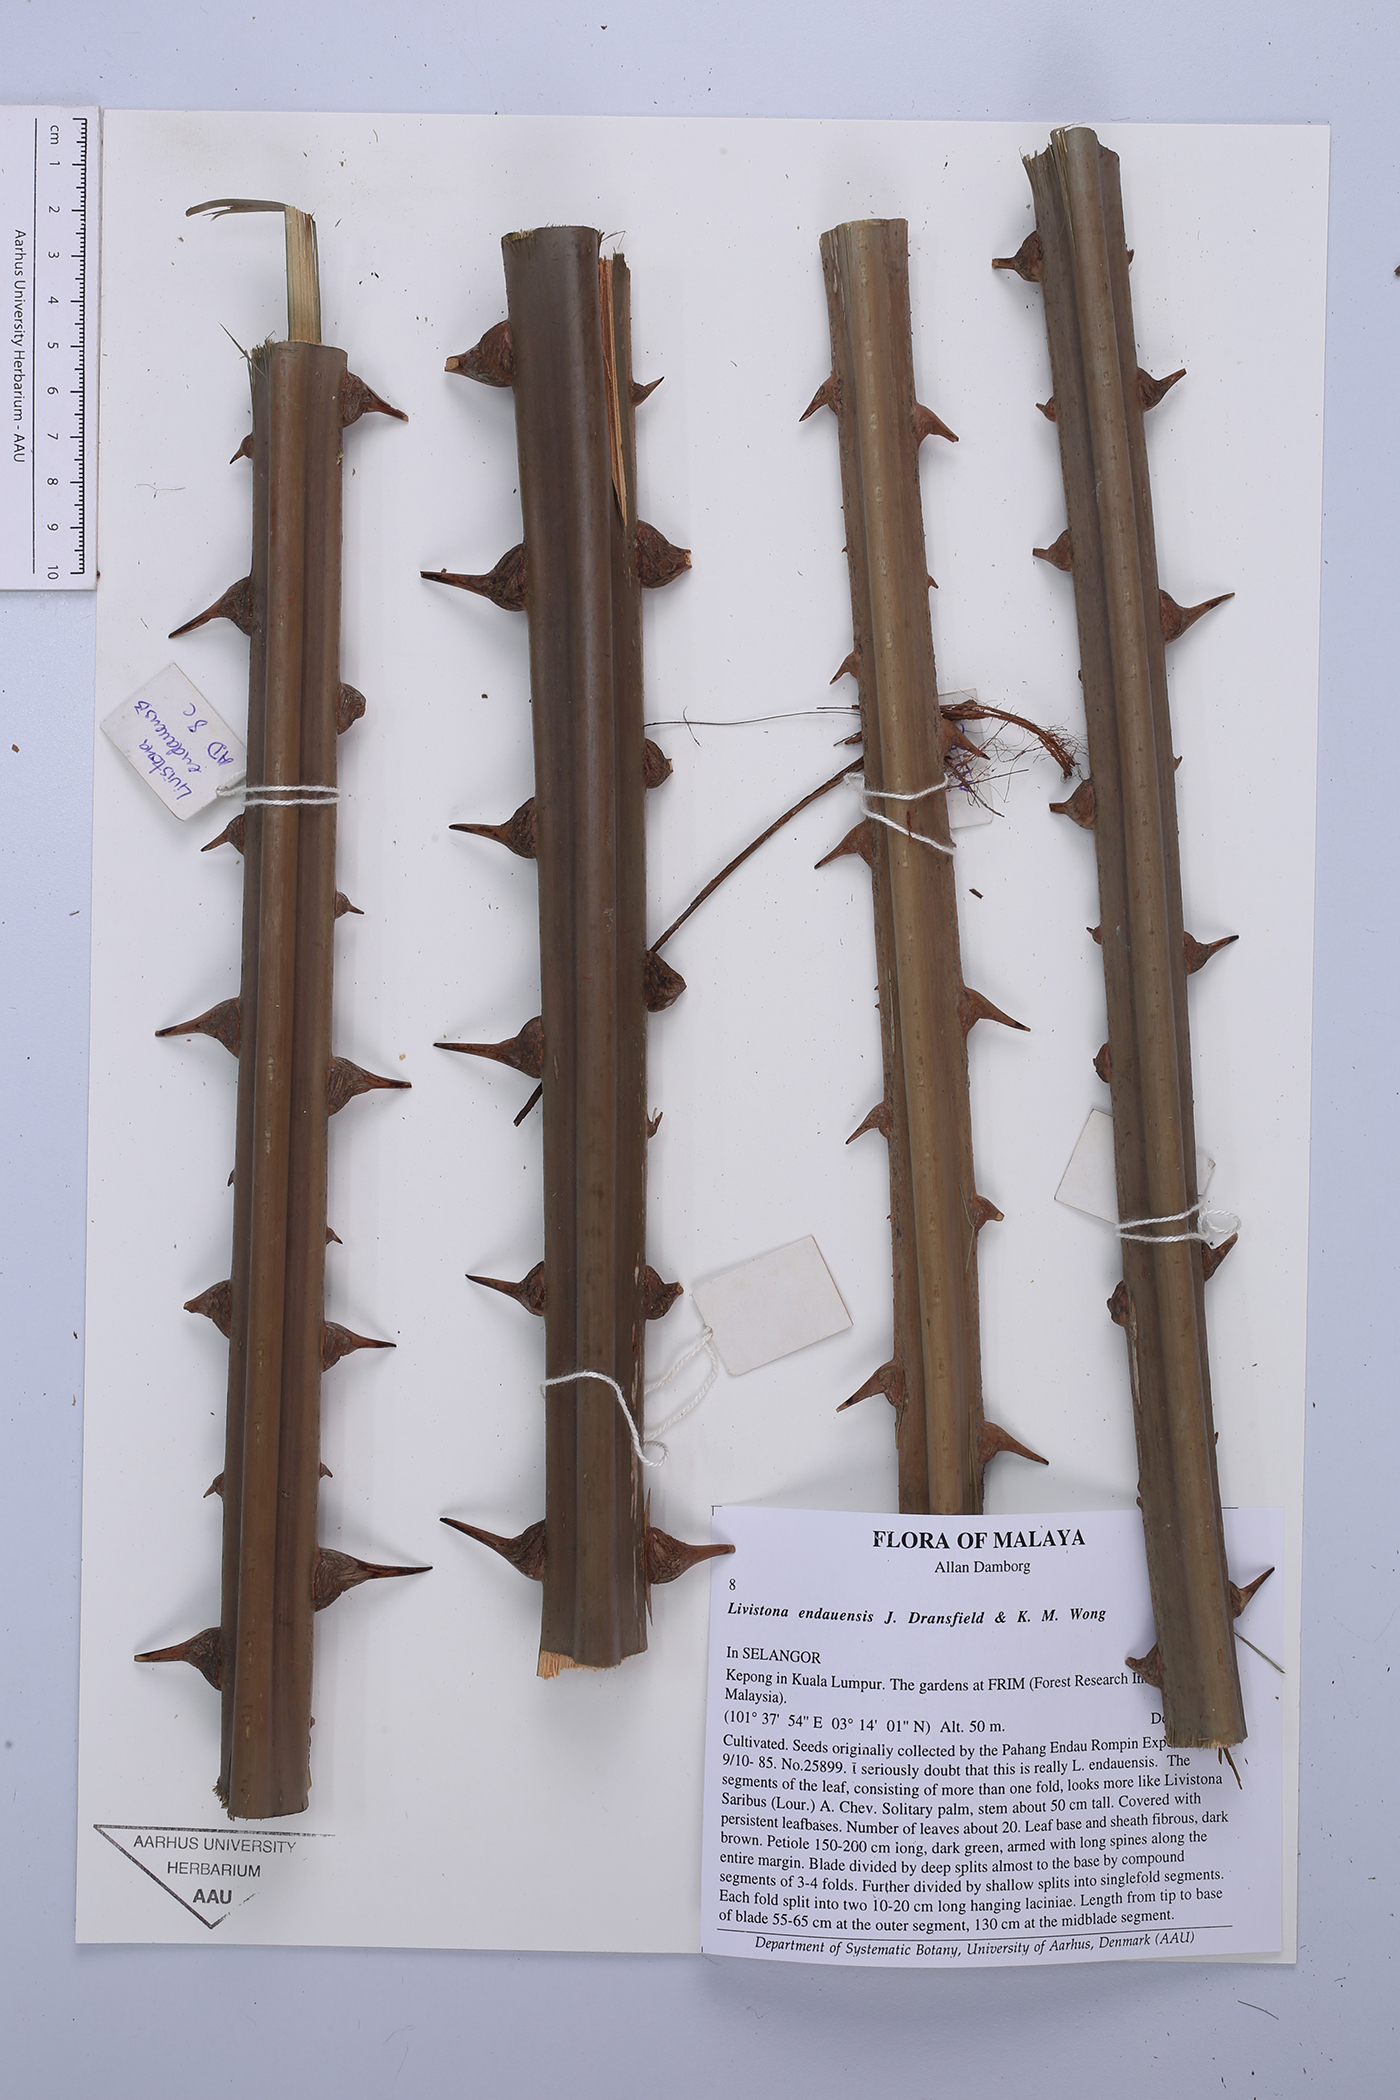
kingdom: Plantae
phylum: Tracheophyta
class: Liliopsida
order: Arecales
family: Arecaceae
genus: Livistona
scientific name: Livistona endauensis
